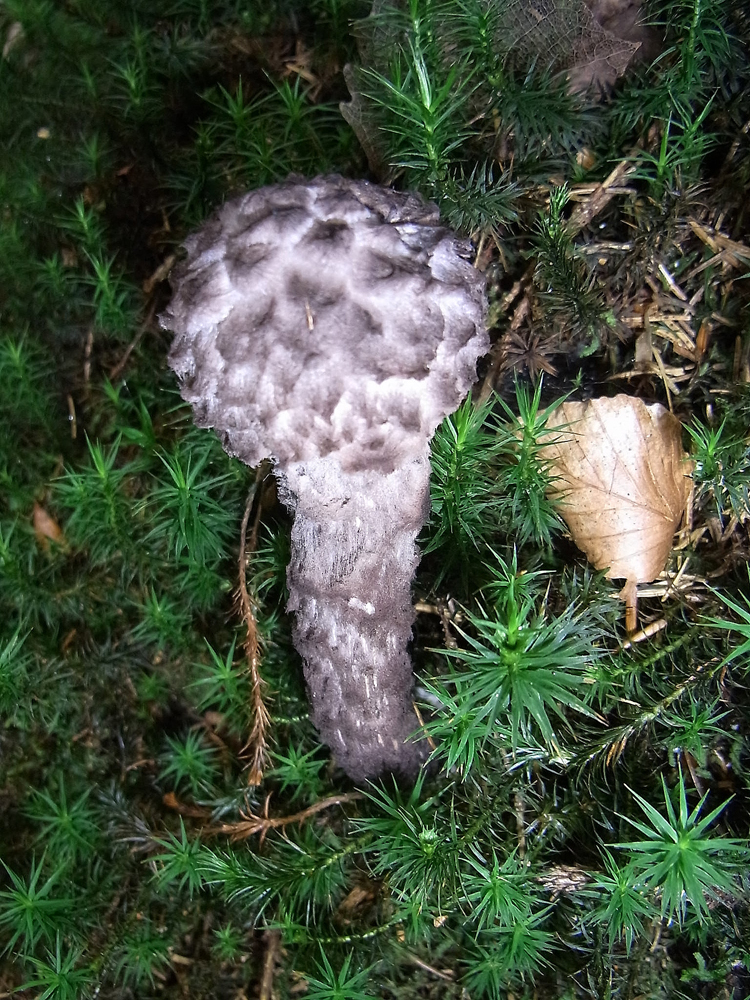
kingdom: Fungi
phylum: Basidiomycota
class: Agaricomycetes
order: Boletales
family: Boletaceae
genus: Strobilomyces
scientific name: Strobilomyces strobilaceus
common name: Old man of the woods
